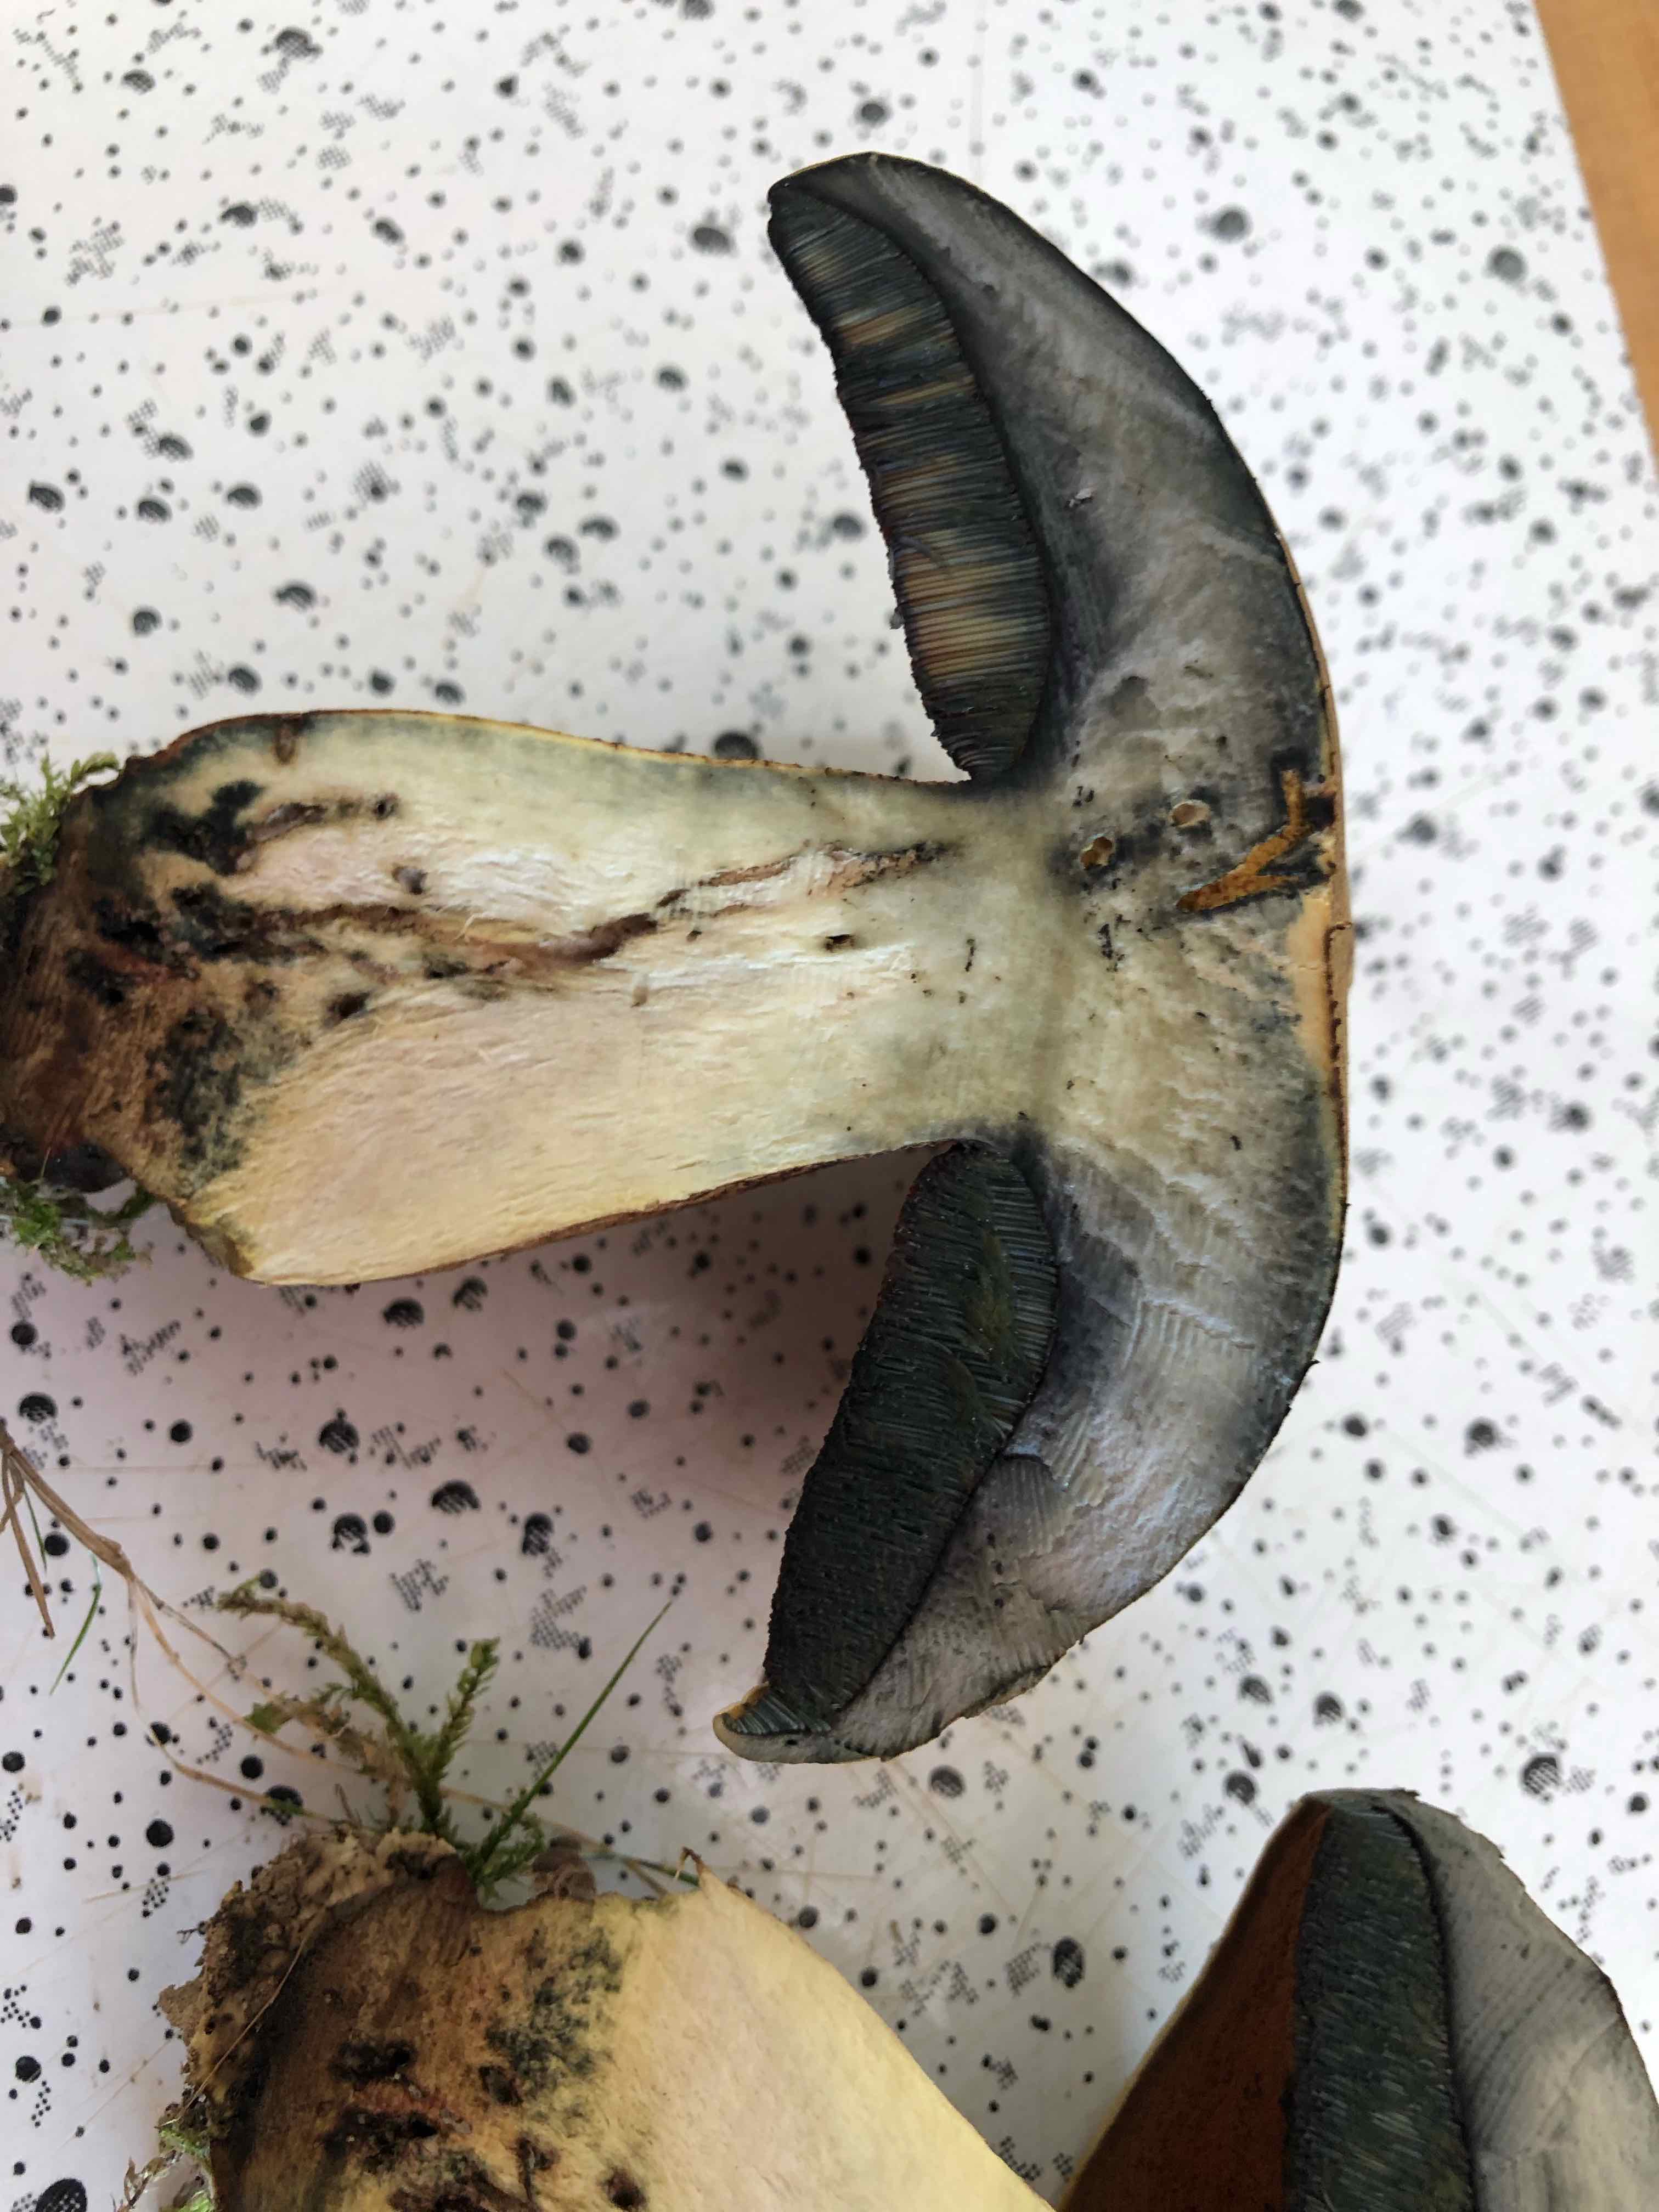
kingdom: Fungi
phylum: Basidiomycota
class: Agaricomycetes
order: Boletales
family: Boletaceae
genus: Suillellus
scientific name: Suillellus luridus
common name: netstokket indigorørhat
